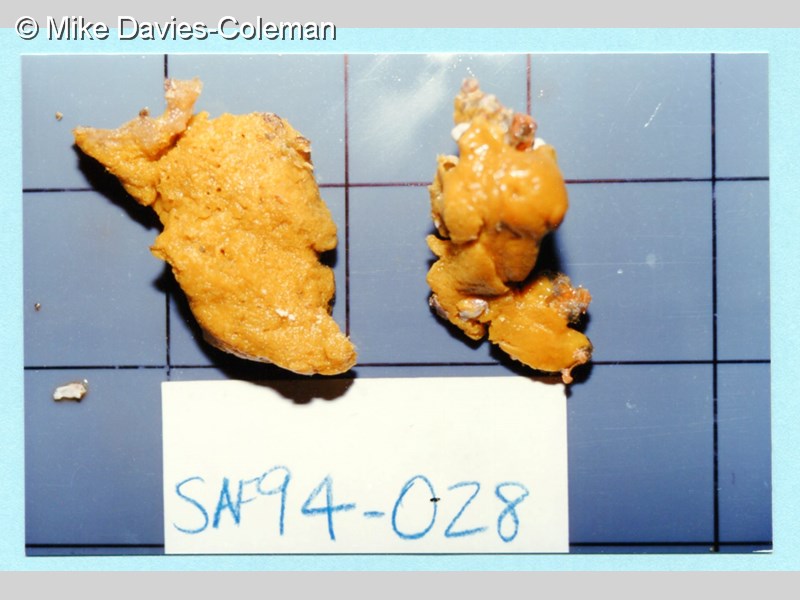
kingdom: Animalia
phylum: Porifera
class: Demospongiae
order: Poecilosclerida
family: Guitarridae
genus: Guitarra
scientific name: Guitarra fimbriata
